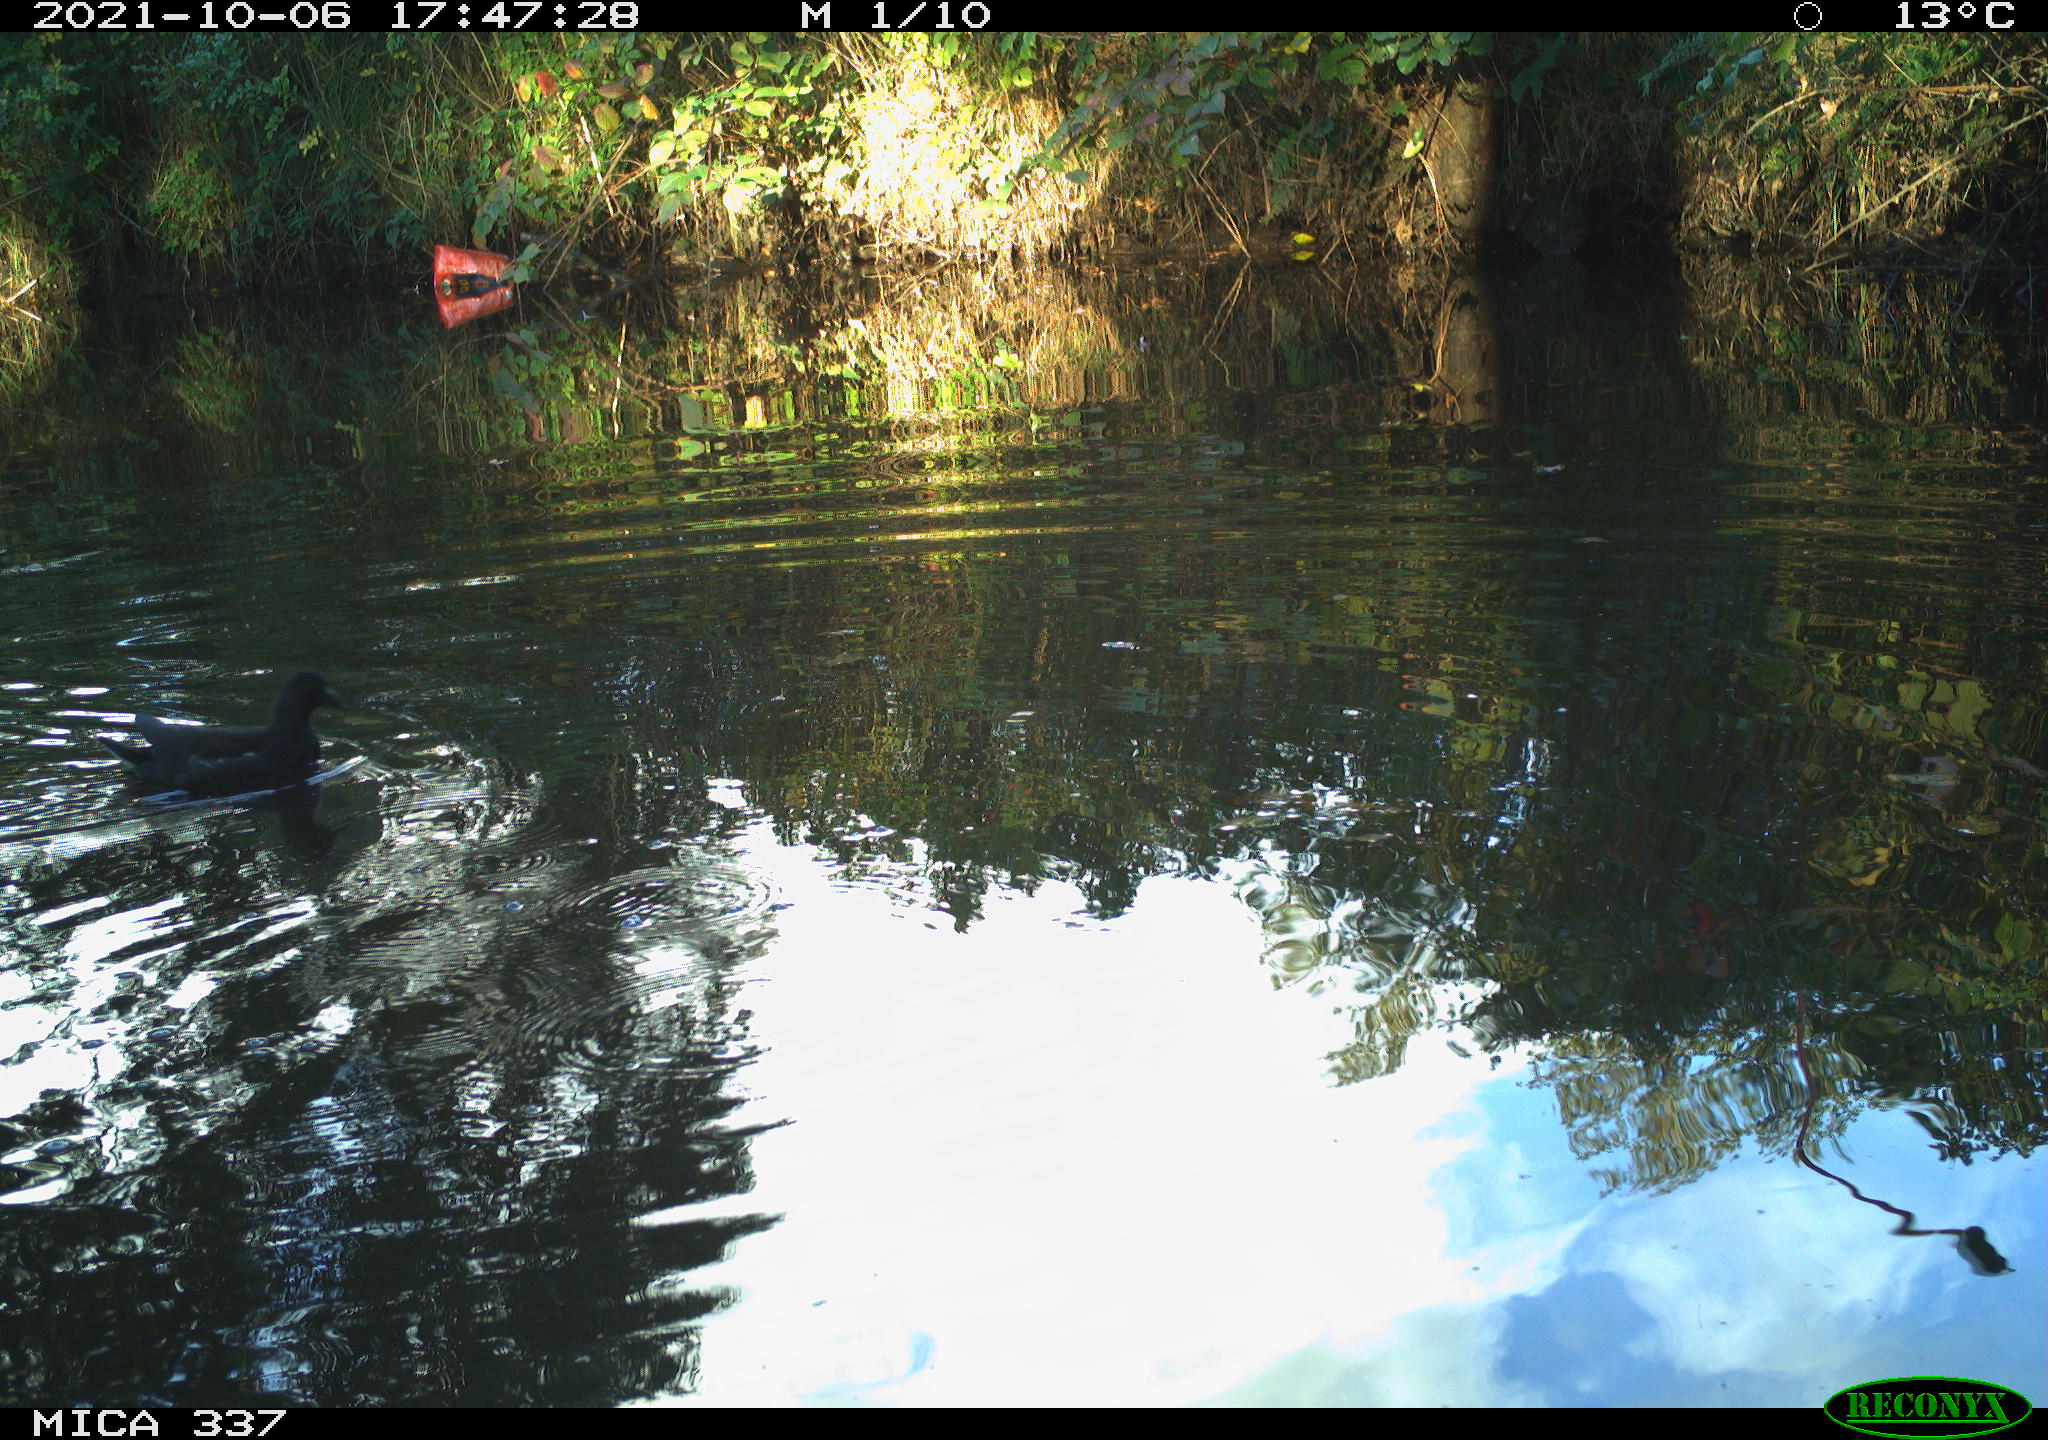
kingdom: Animalia
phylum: Chordata
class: Aves
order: Gruiformes
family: Rallidae
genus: Gallinula
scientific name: Gallinula chloropus
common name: Common moorhen
